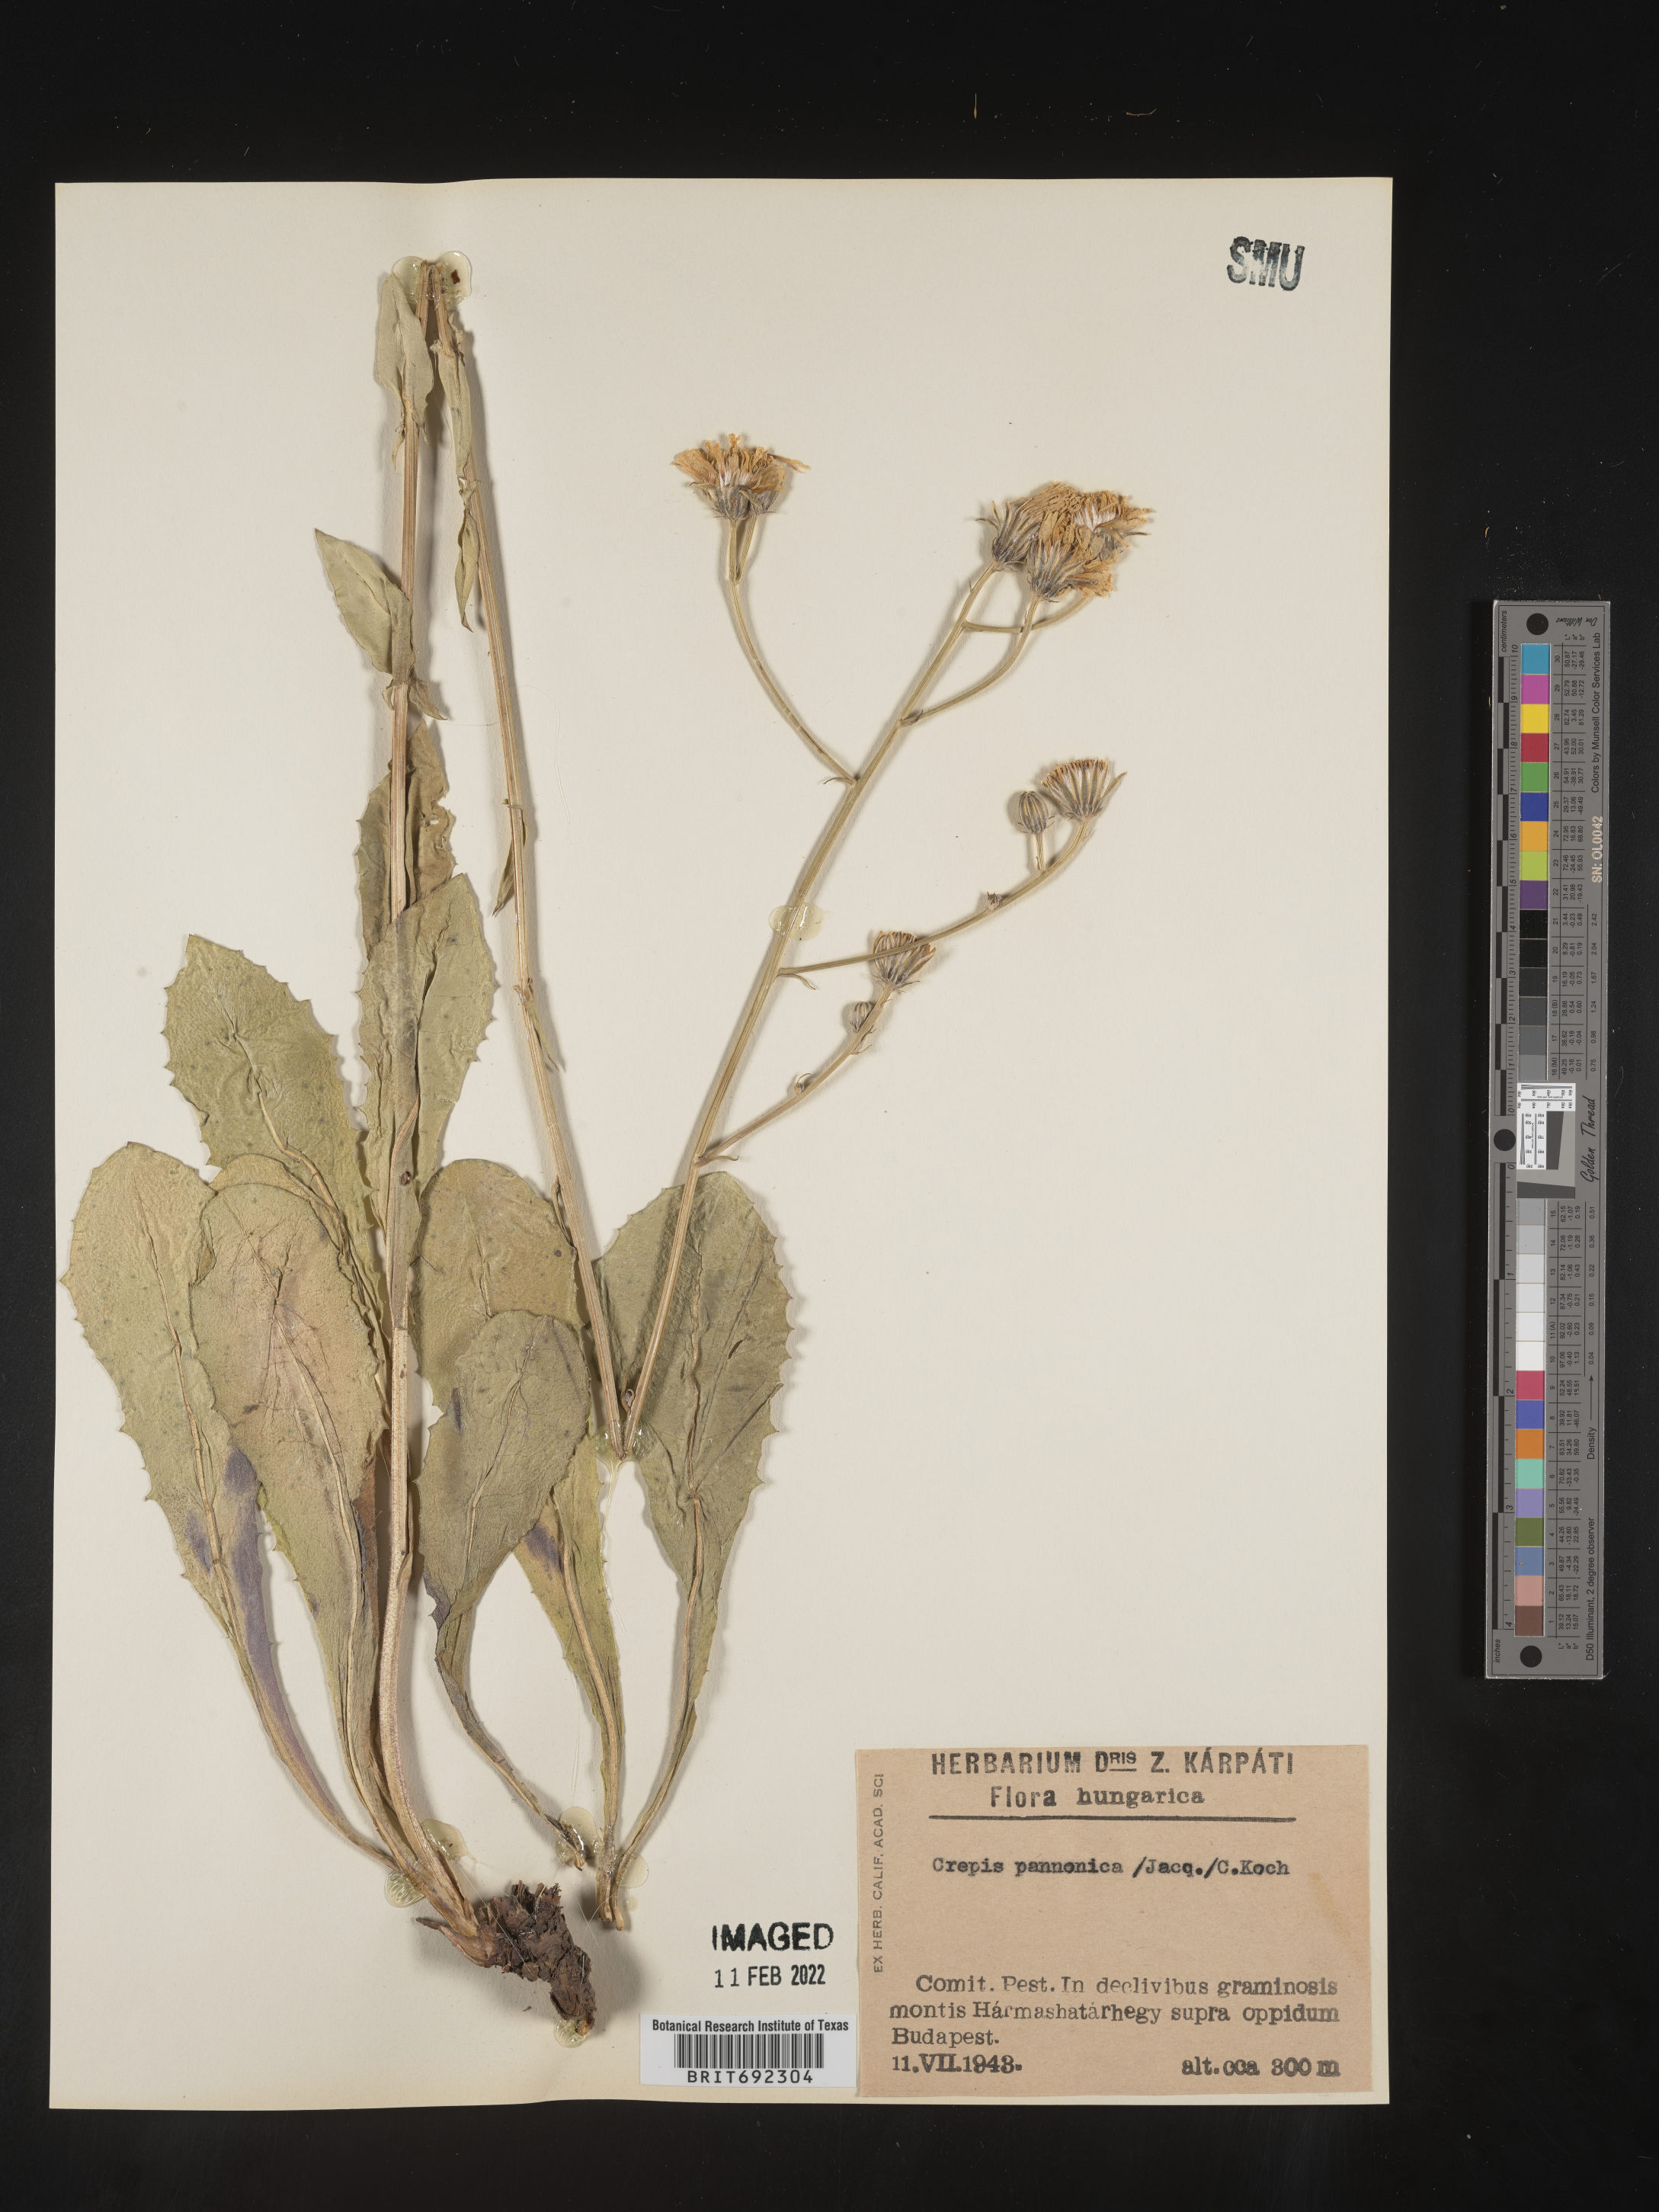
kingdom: Plantae
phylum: Tracheophyta
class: Magnoliopsida
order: Asterales
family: Asteraceae
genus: Crepis
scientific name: Crepis
